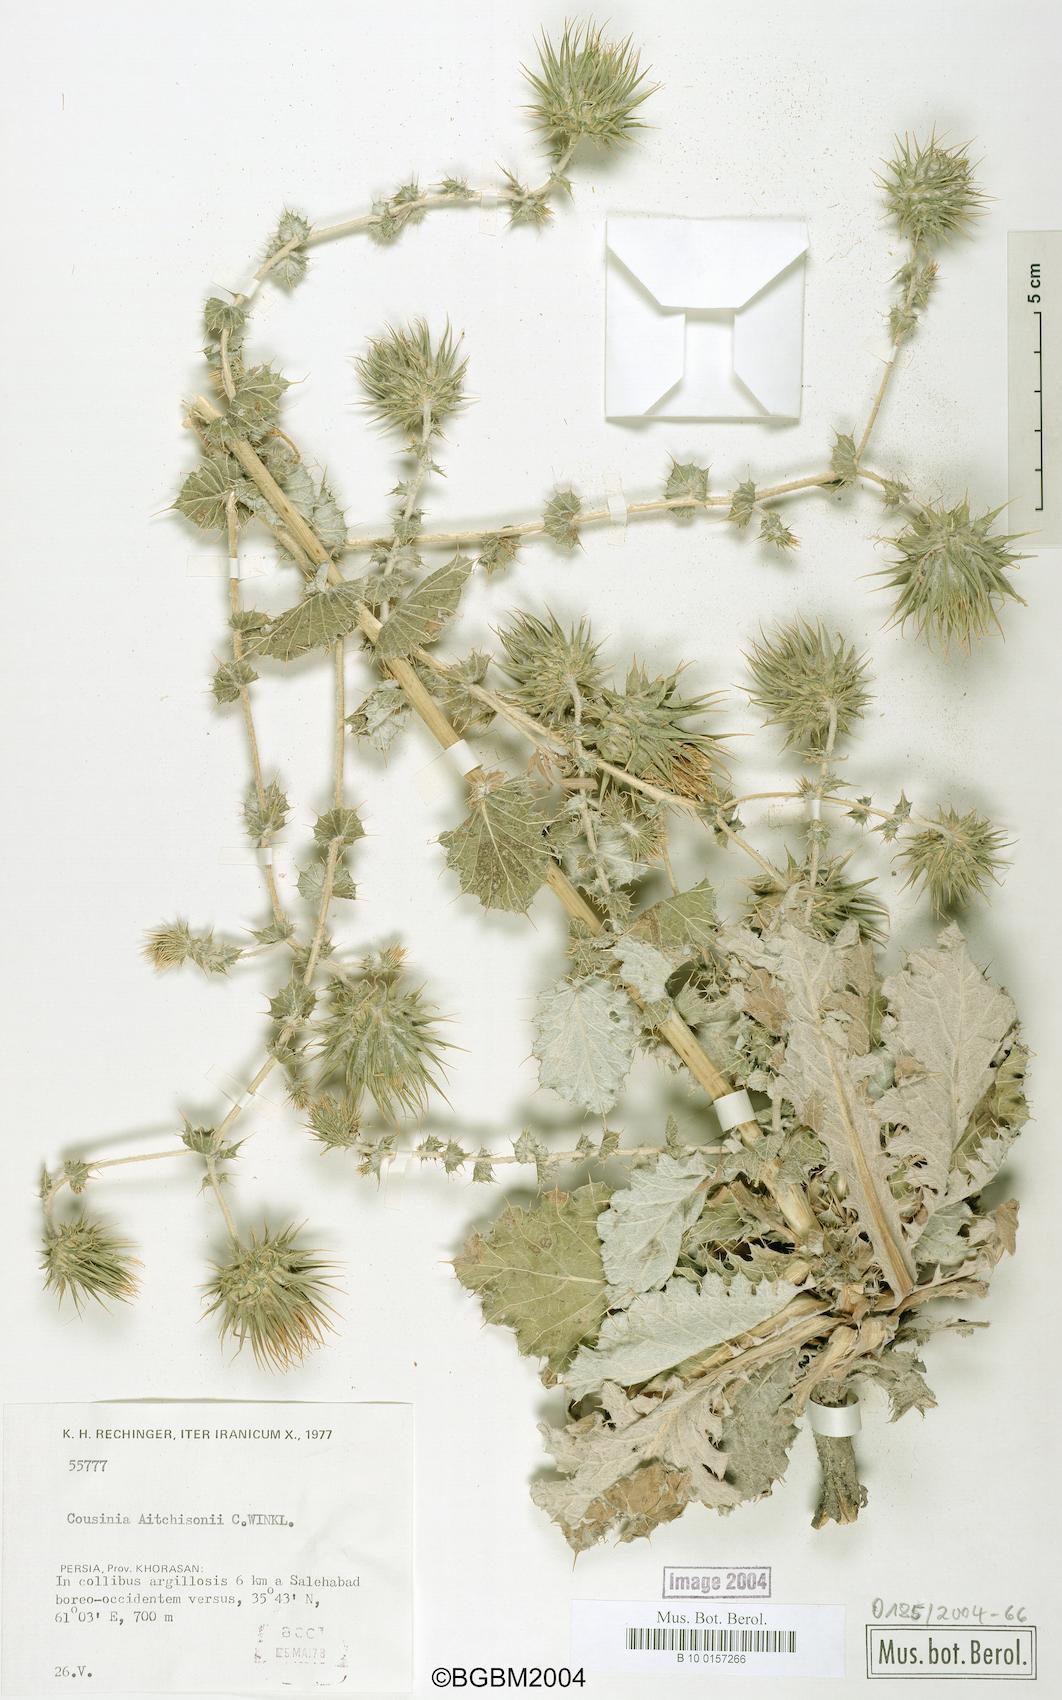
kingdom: Plantae
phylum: Tracheophyta
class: Magnoliopsida
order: Asterales
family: Asteraceae
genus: Cousinia
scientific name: Cousinia aitchisonii
